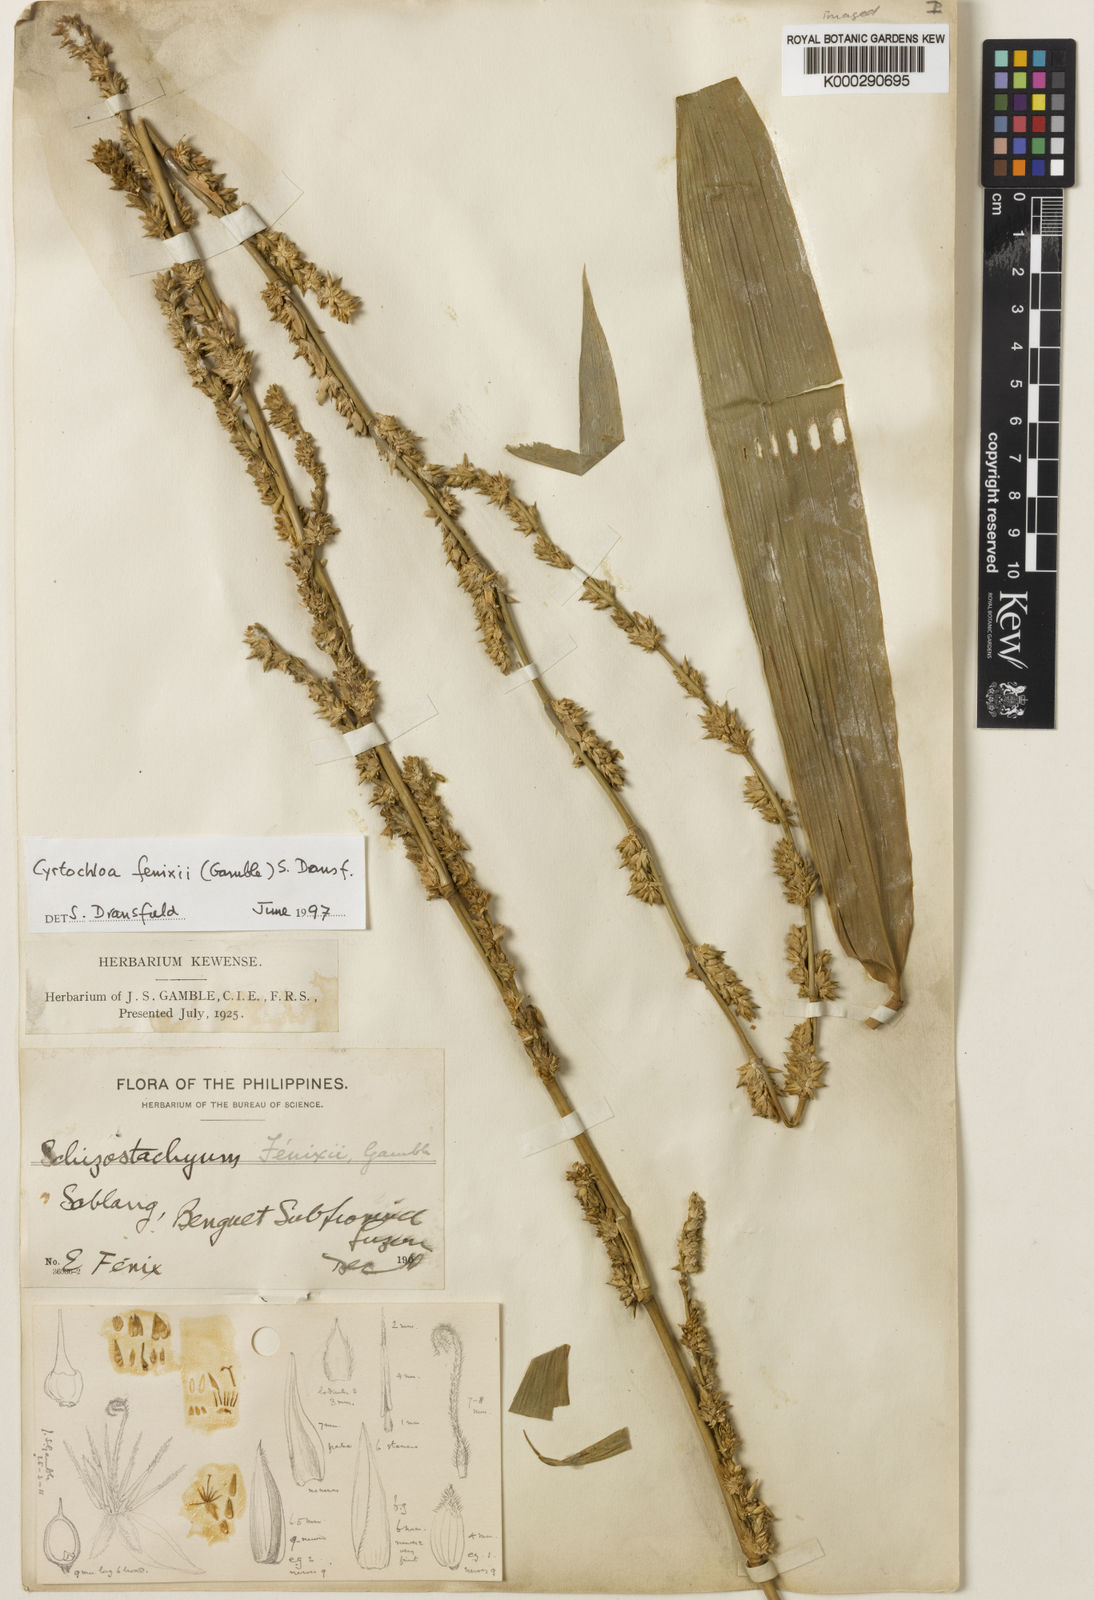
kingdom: Plantae
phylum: Tracheophyta
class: Liliopsida
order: Poales
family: Poaceae
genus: Cyrtochloa
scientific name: Cyrtochloa fenixii
